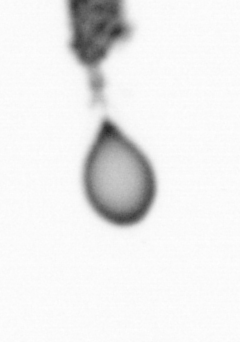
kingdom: Animalia
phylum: Arthropoda
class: Copepoda
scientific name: Copepoda
